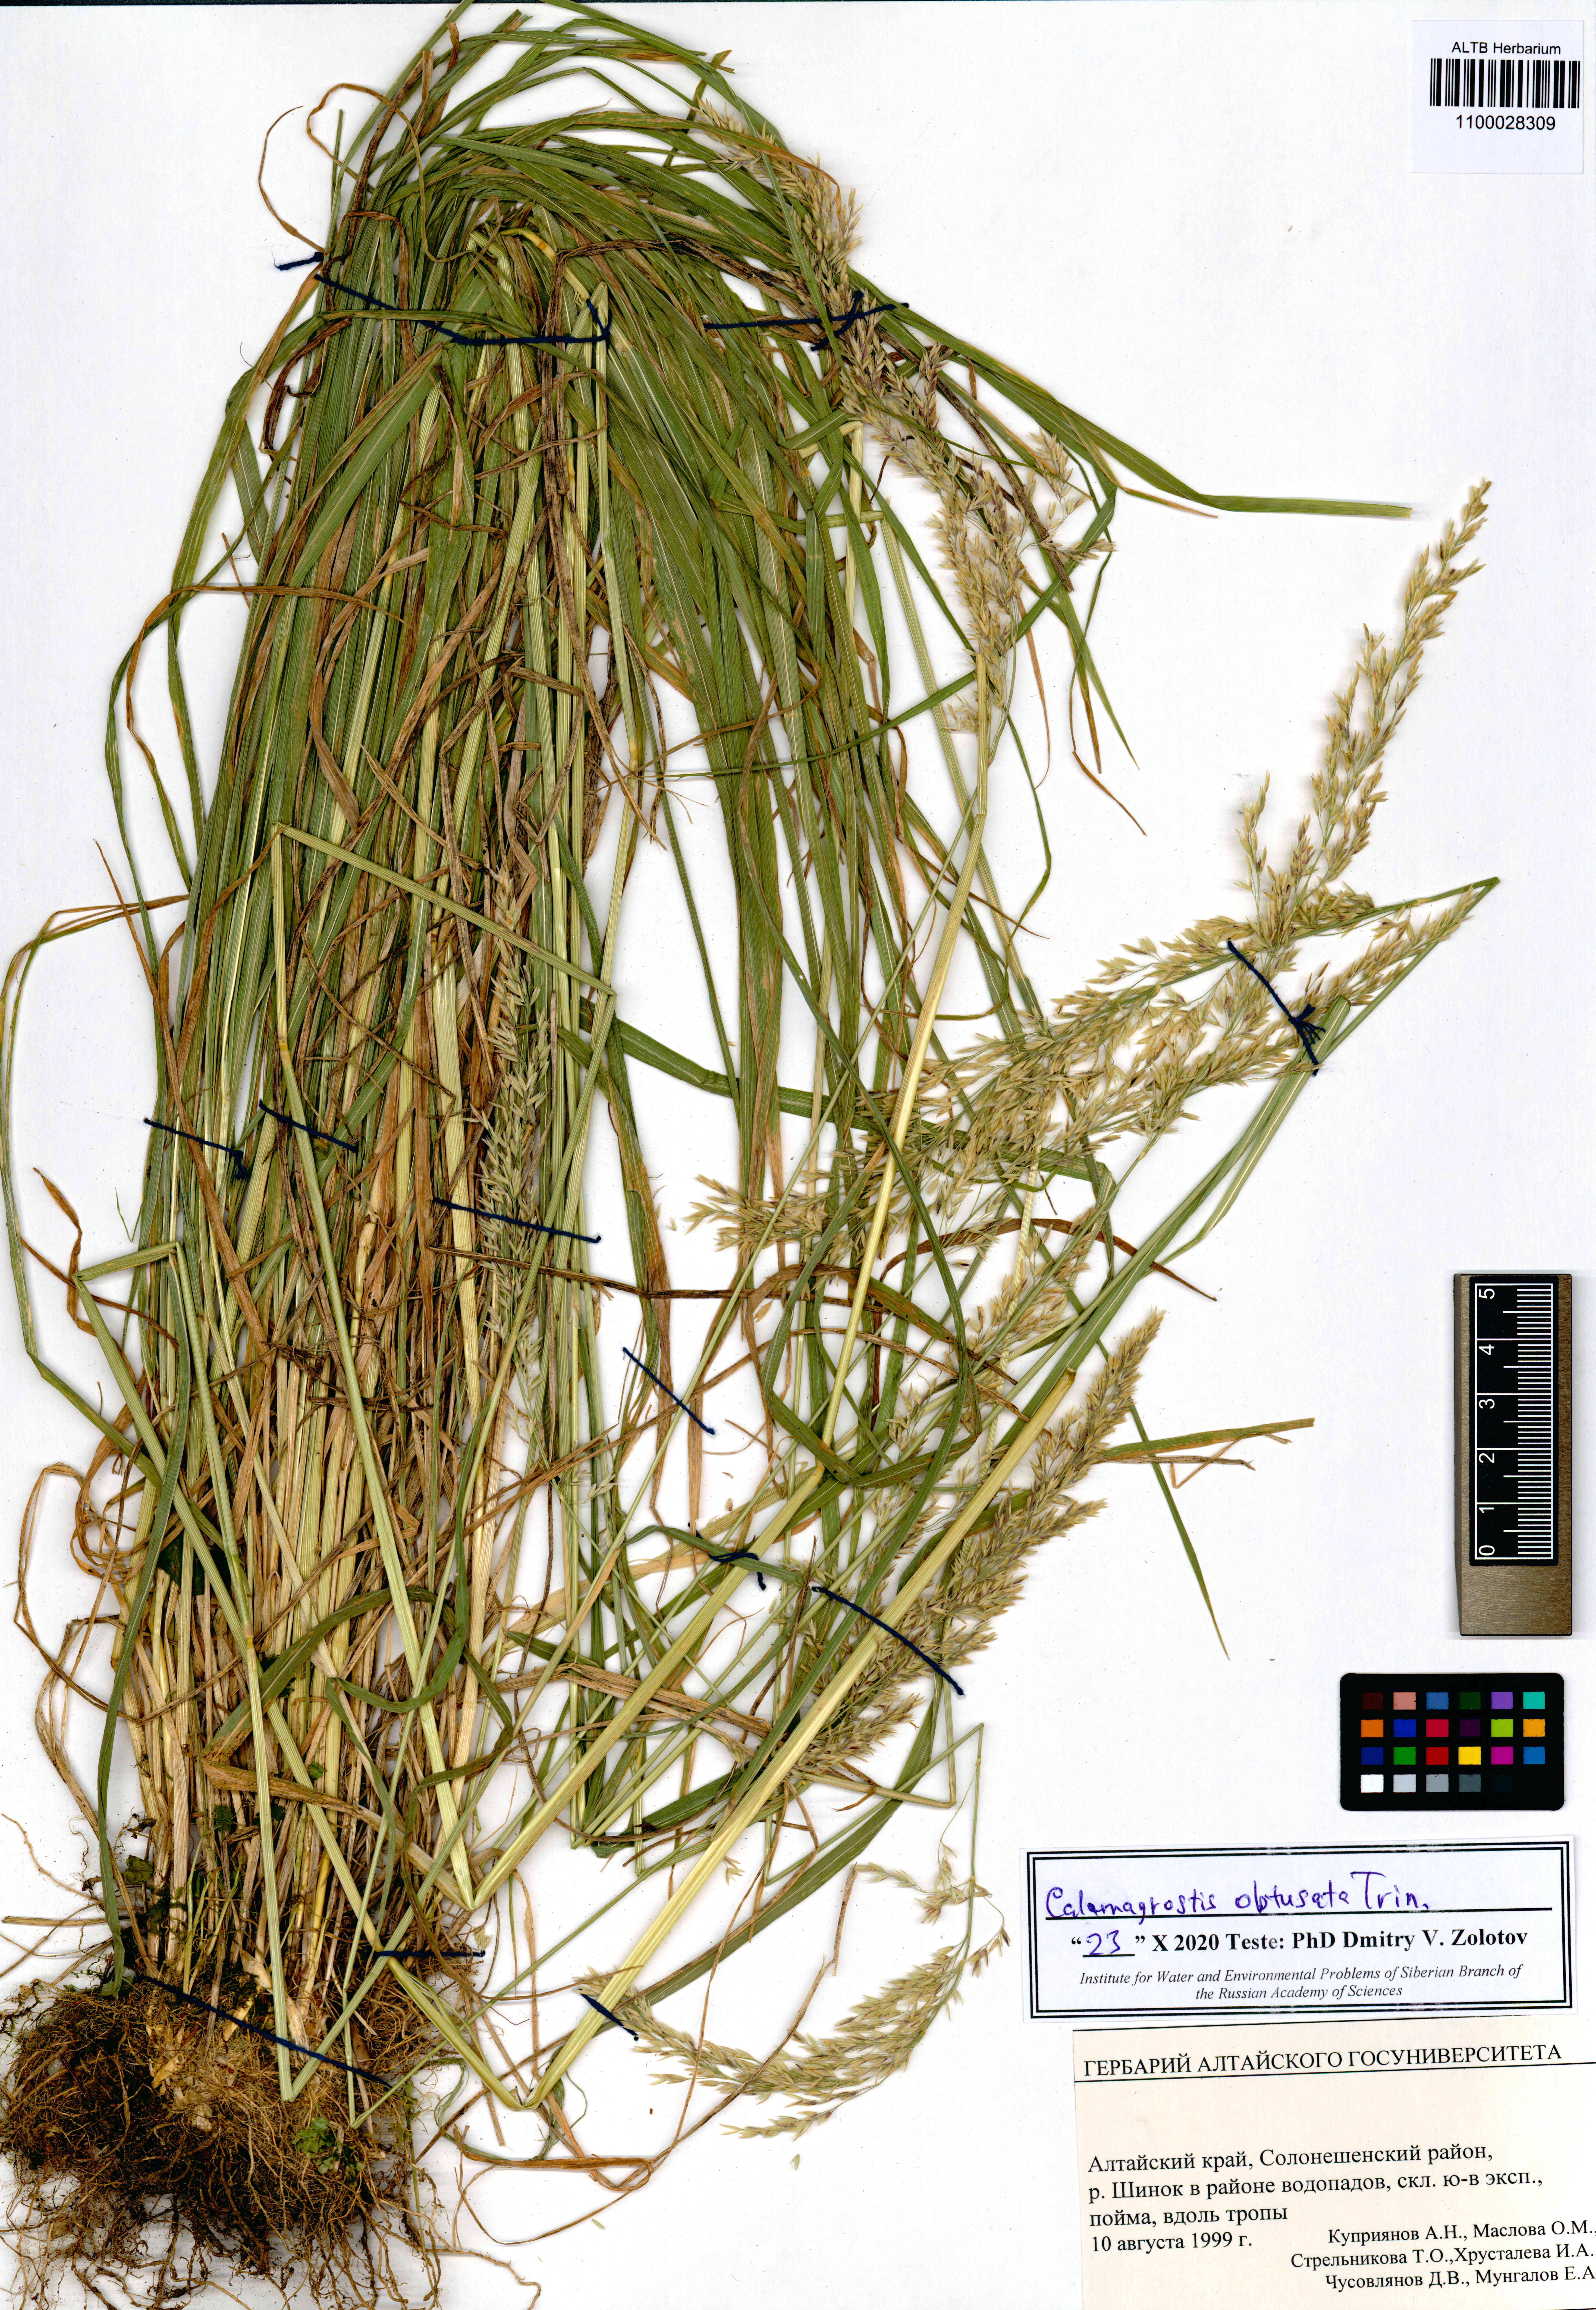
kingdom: Plantae
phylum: Tracheophyta
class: Liliopsida
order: Poales
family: Poaceae
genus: Calamagrostis
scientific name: Calamagrostis obtusata
